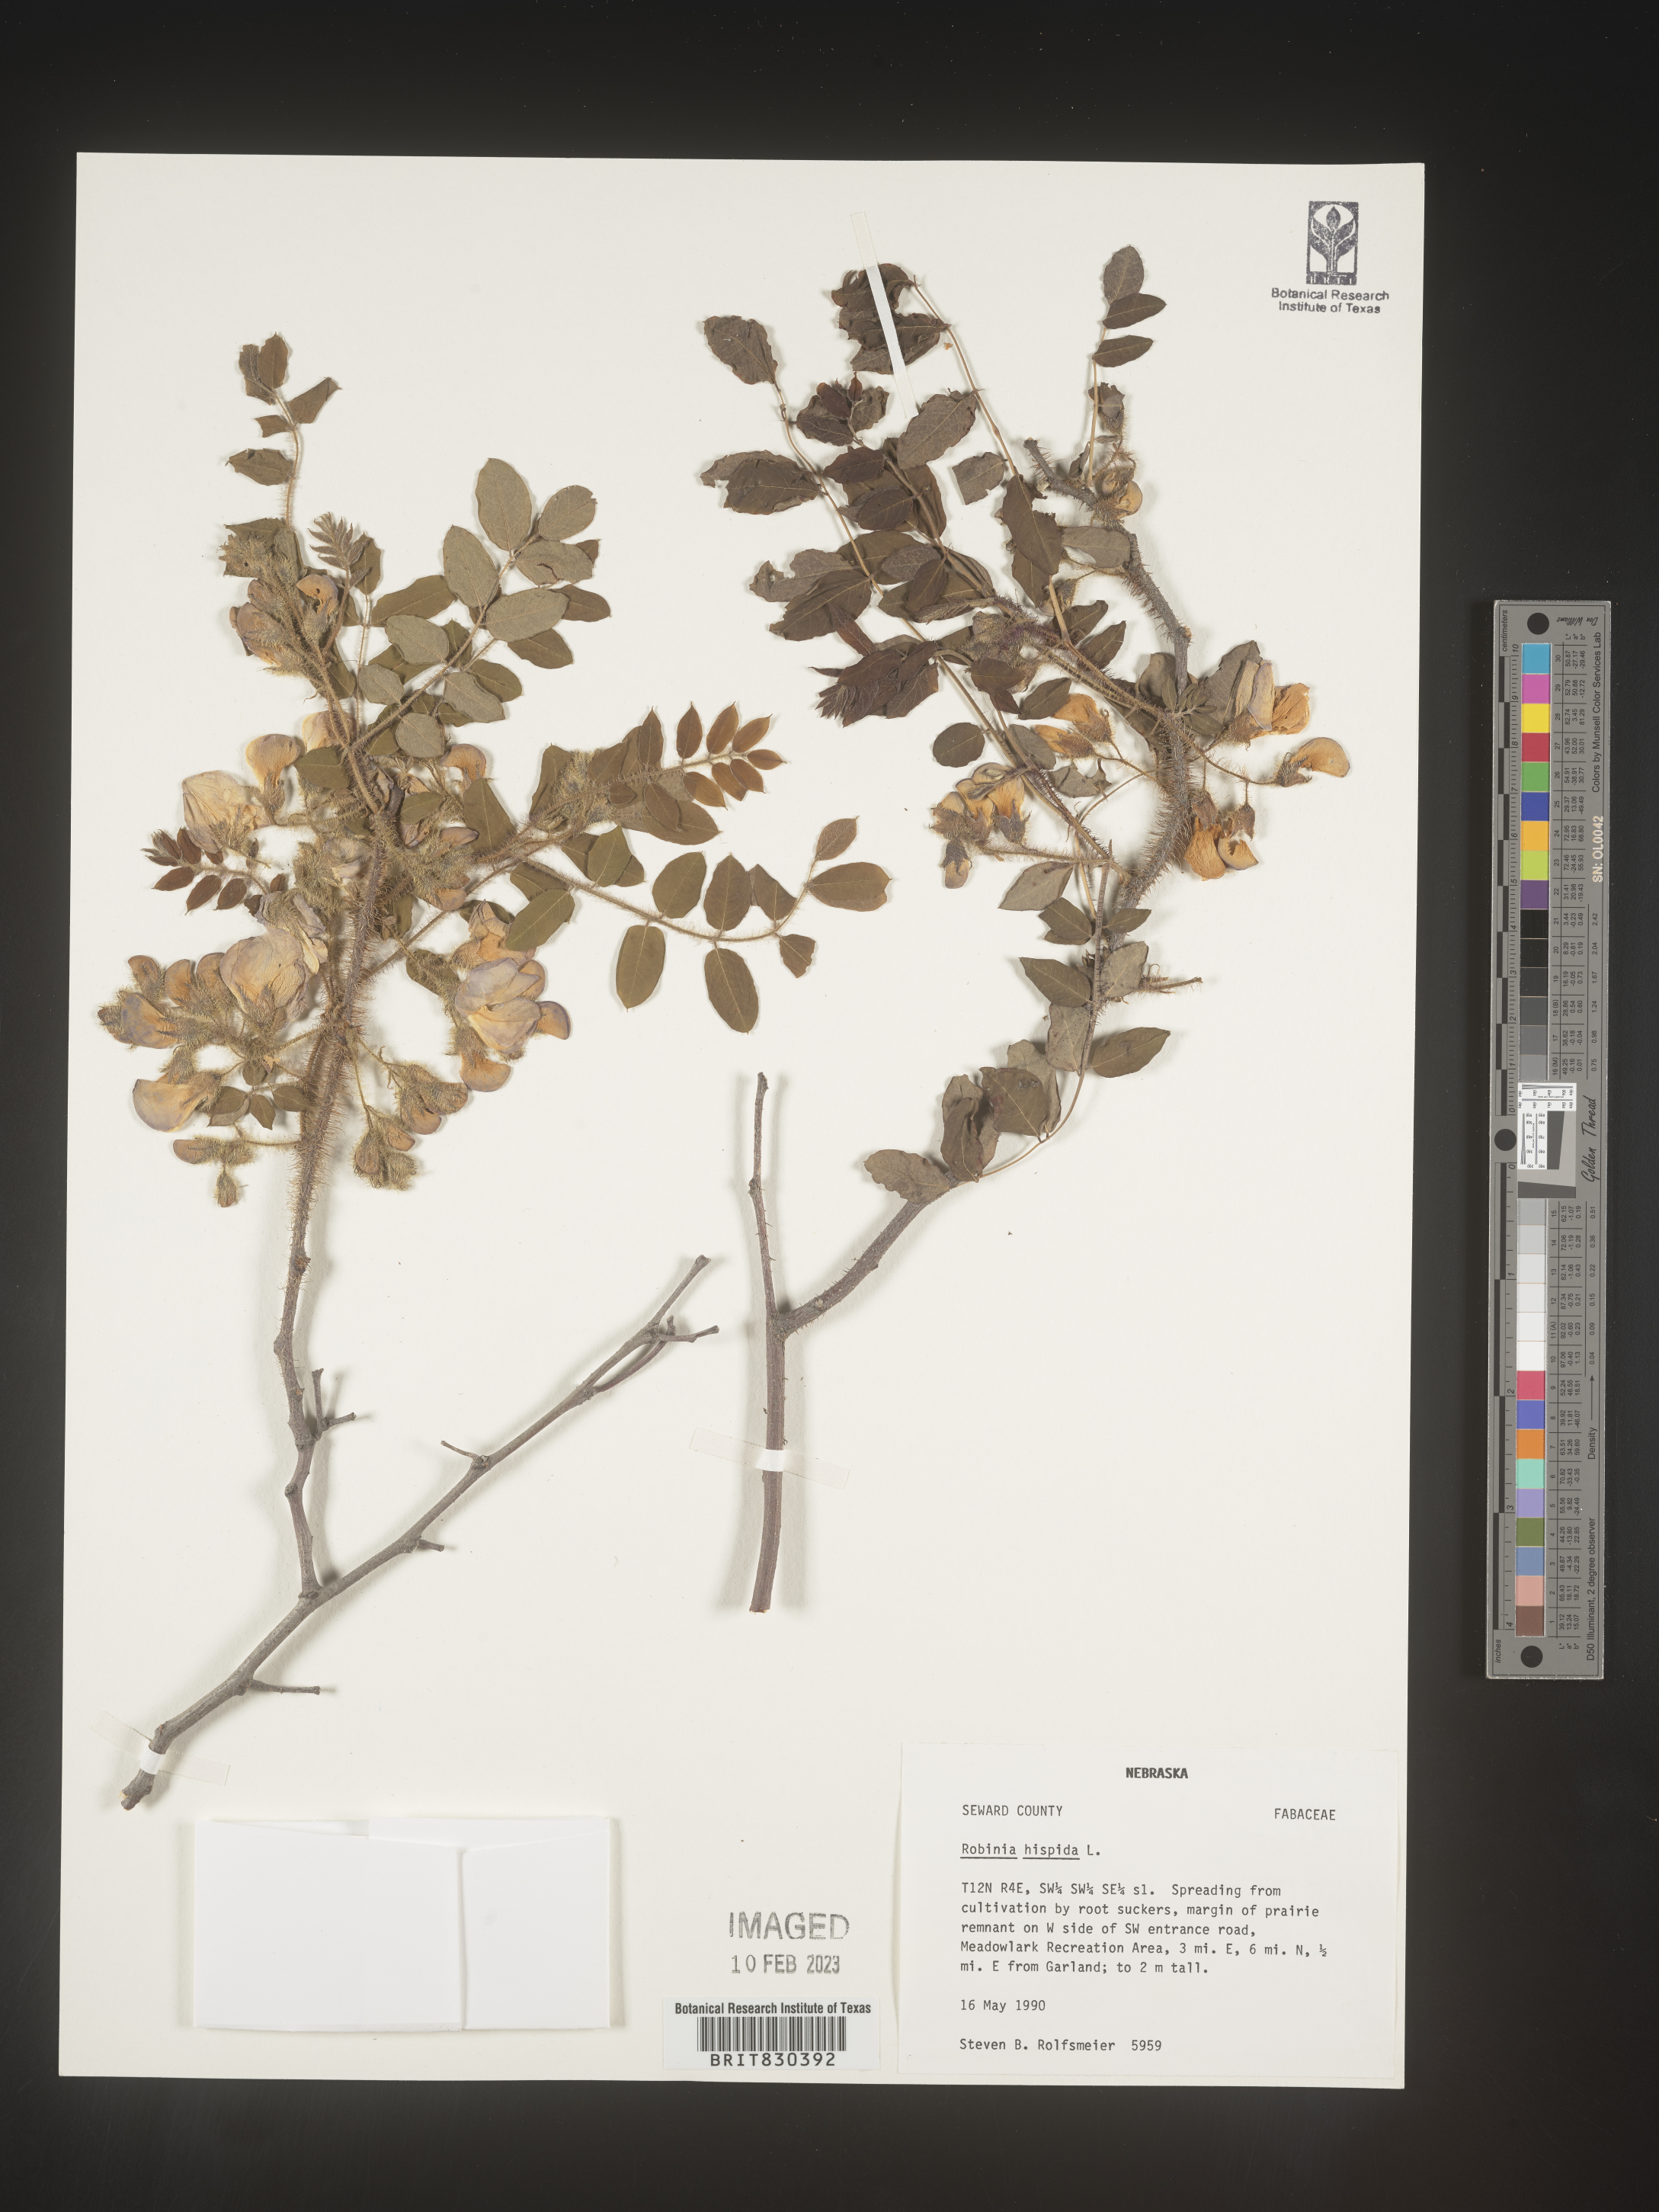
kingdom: Plantae
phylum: Tracheophyta
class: Magnoliopsida
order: Fabales
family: Fabaceae
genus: Robinia
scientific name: Robinia hispida
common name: Bristly locust
